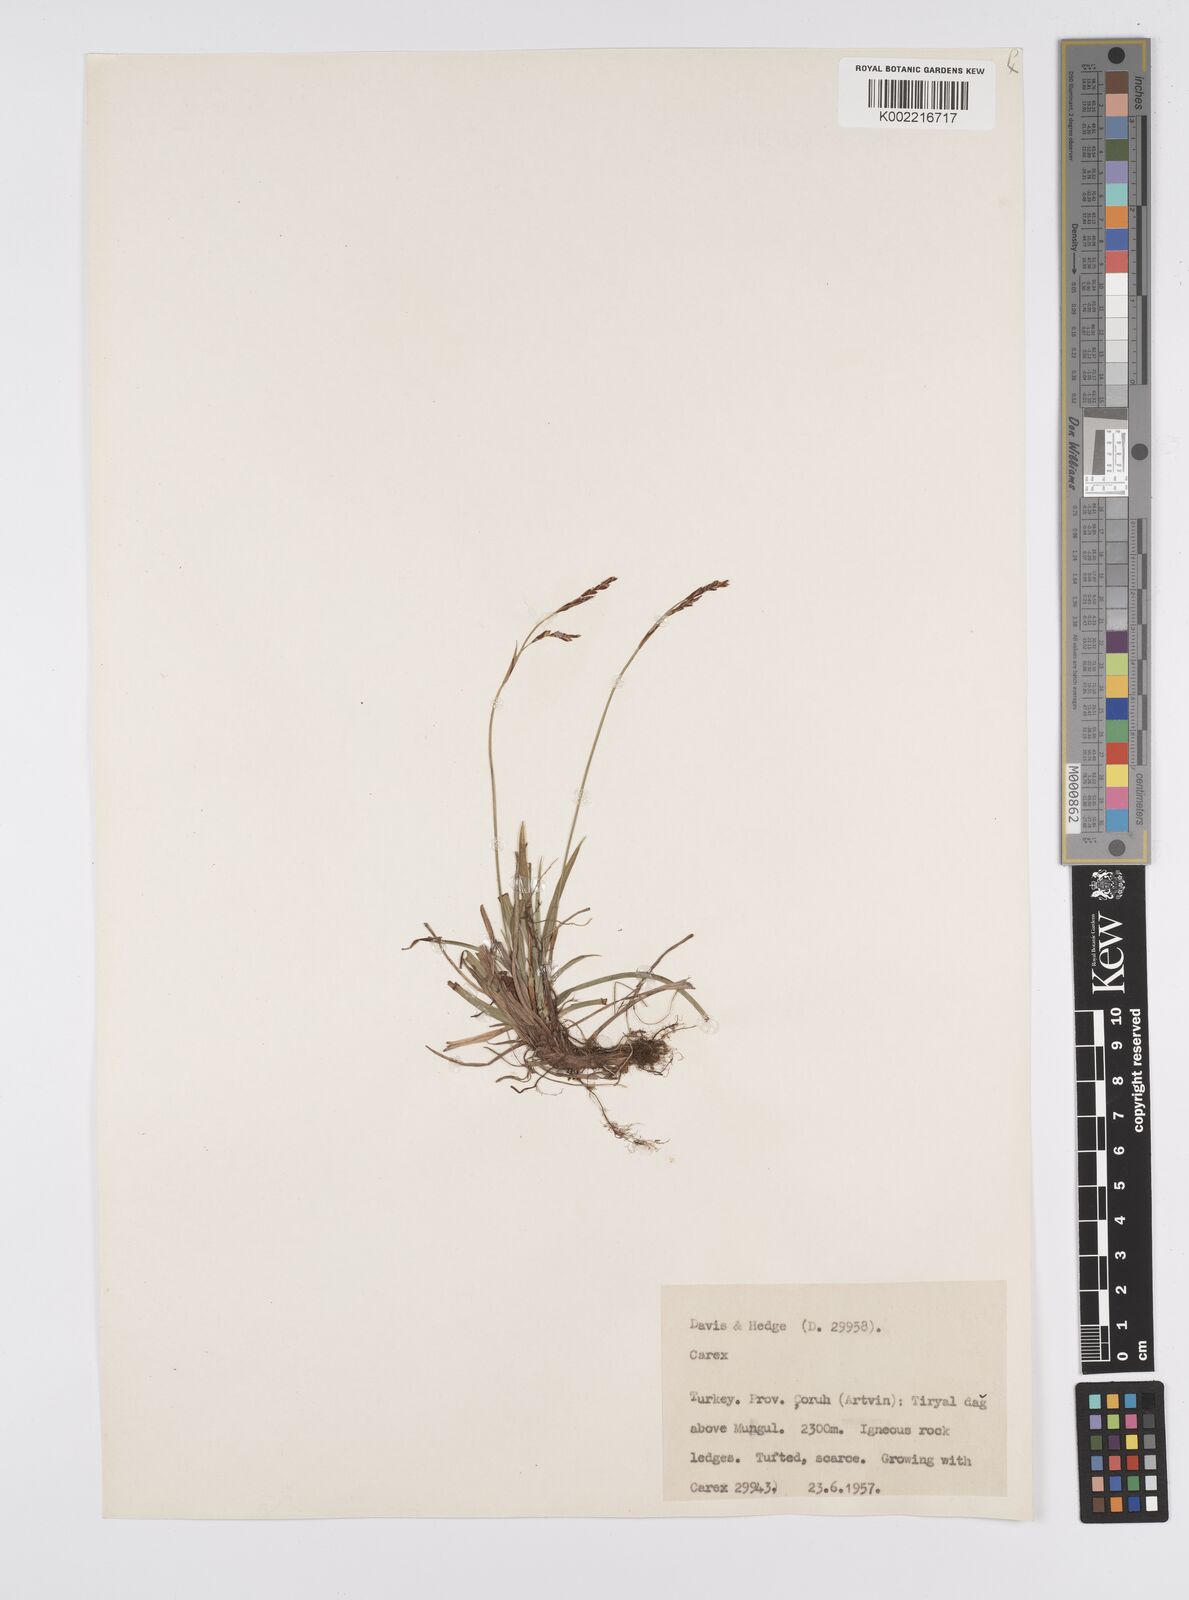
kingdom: Plantae
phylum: Tracheophyta
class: Liliopsida
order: Poales
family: Cyperaceae
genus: Carex
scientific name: Carex digitata
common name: Fingered sedge
